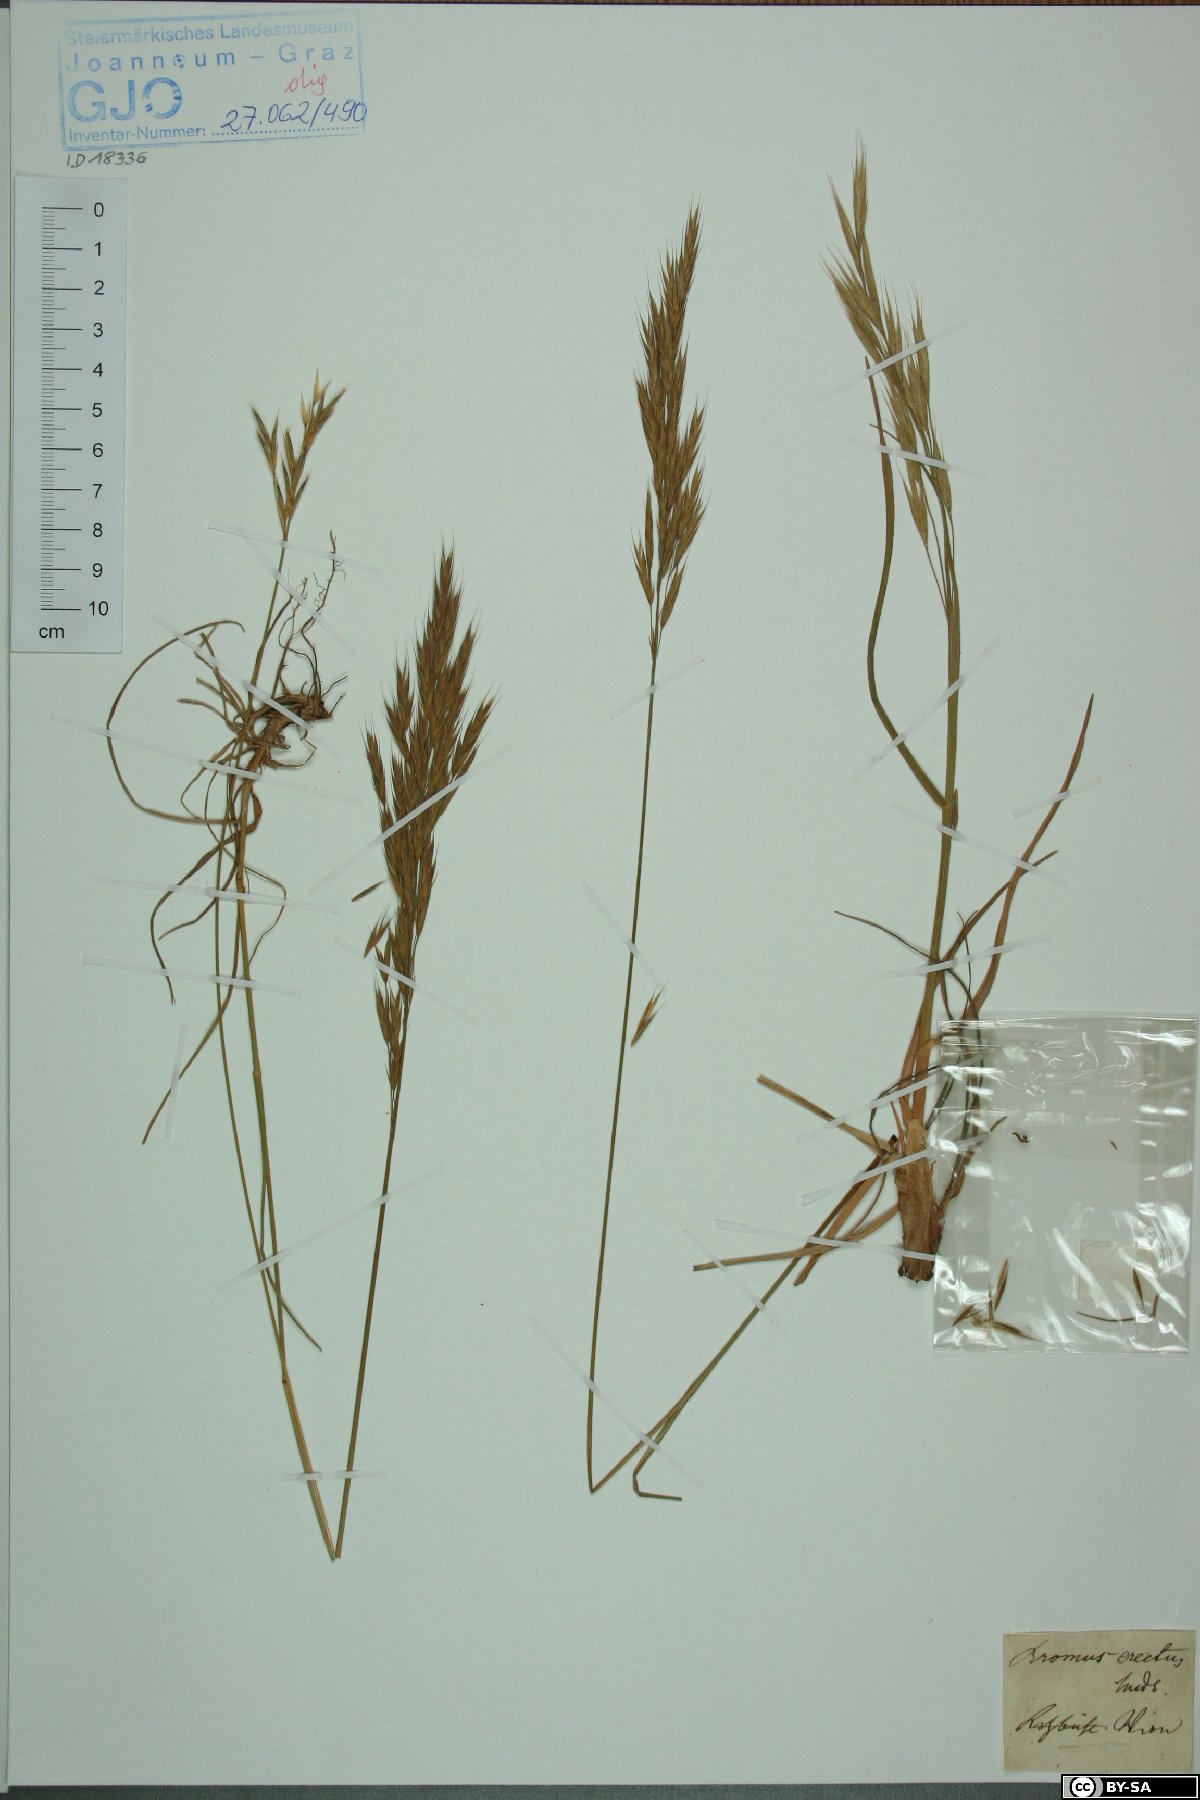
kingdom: Plantae
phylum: Tracheophyta
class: Liliopsida
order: Poales
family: Poaceae
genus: Bromus
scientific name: Bromus erectus
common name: Erect brome
